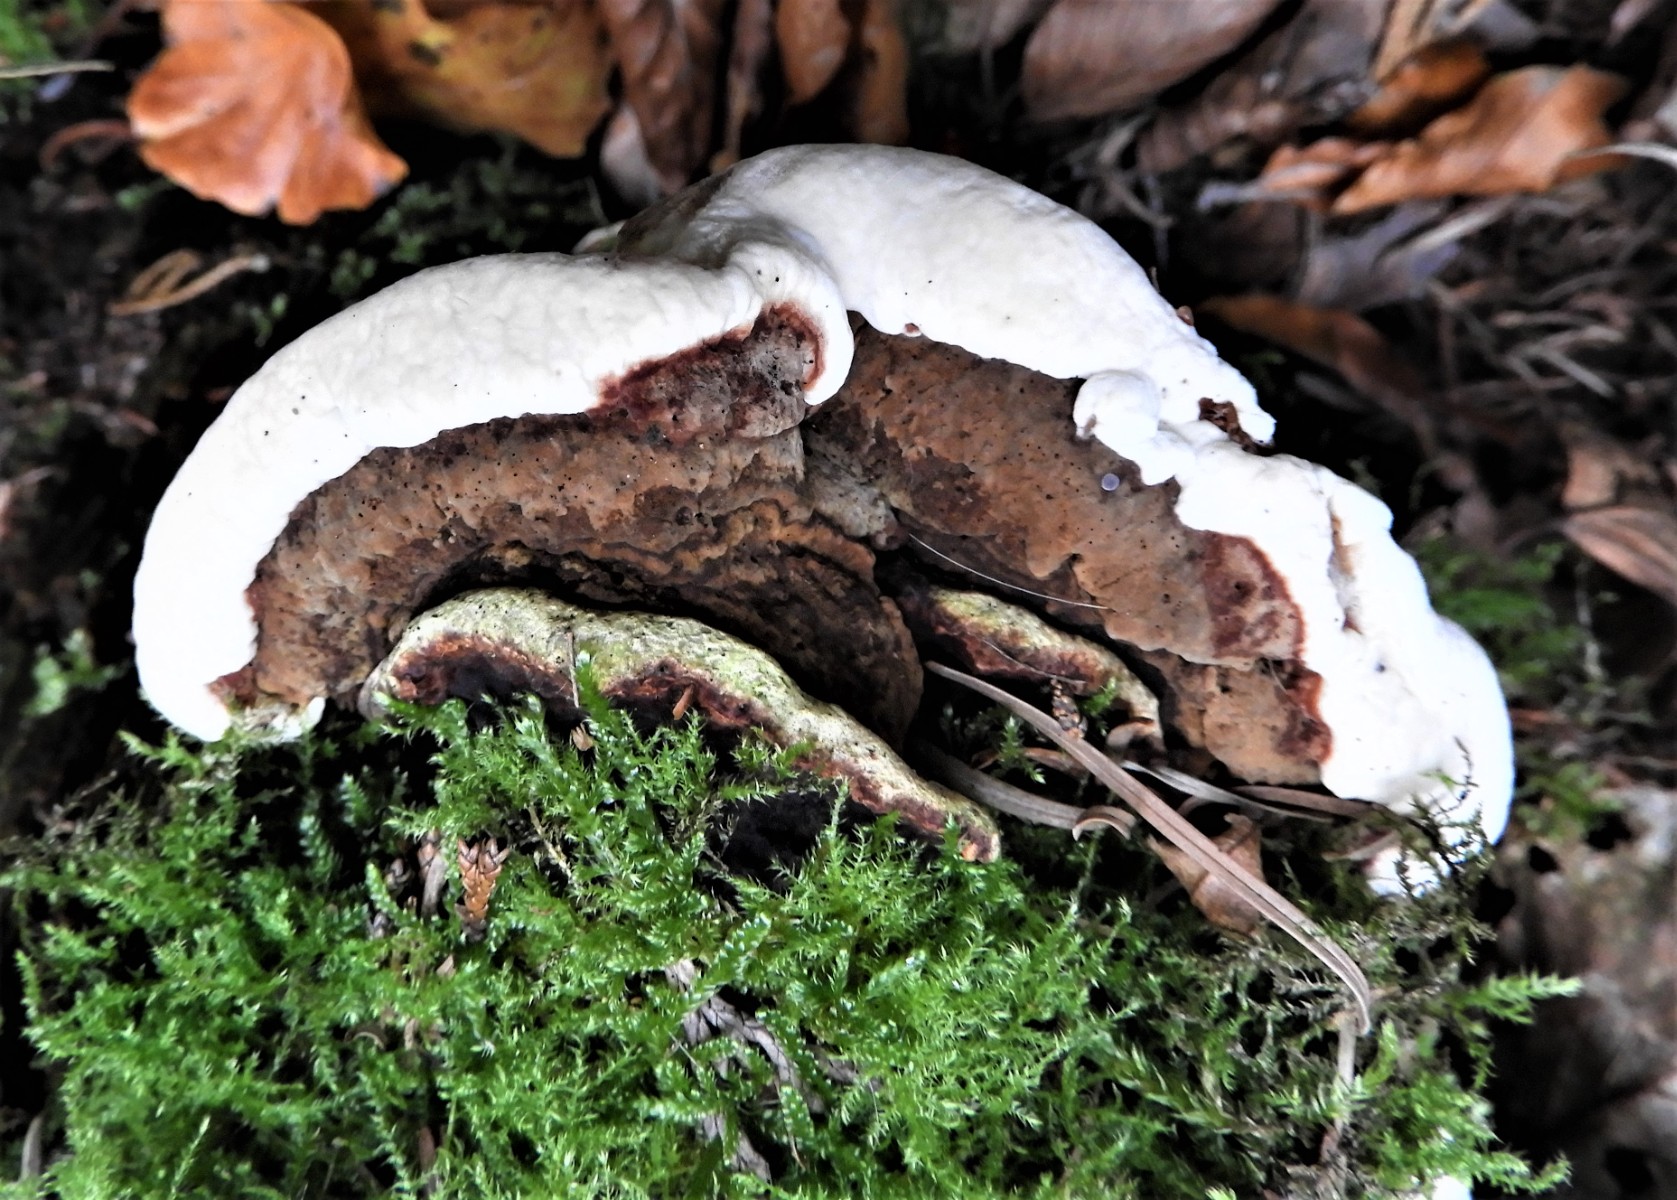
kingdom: Fungi
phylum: Basidiomycota
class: Agaricomycetes
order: Russulales
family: Bondarzewiaceae
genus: Heterobasidion
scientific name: Heterobasidion annosum
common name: almindelig rodfordærver
